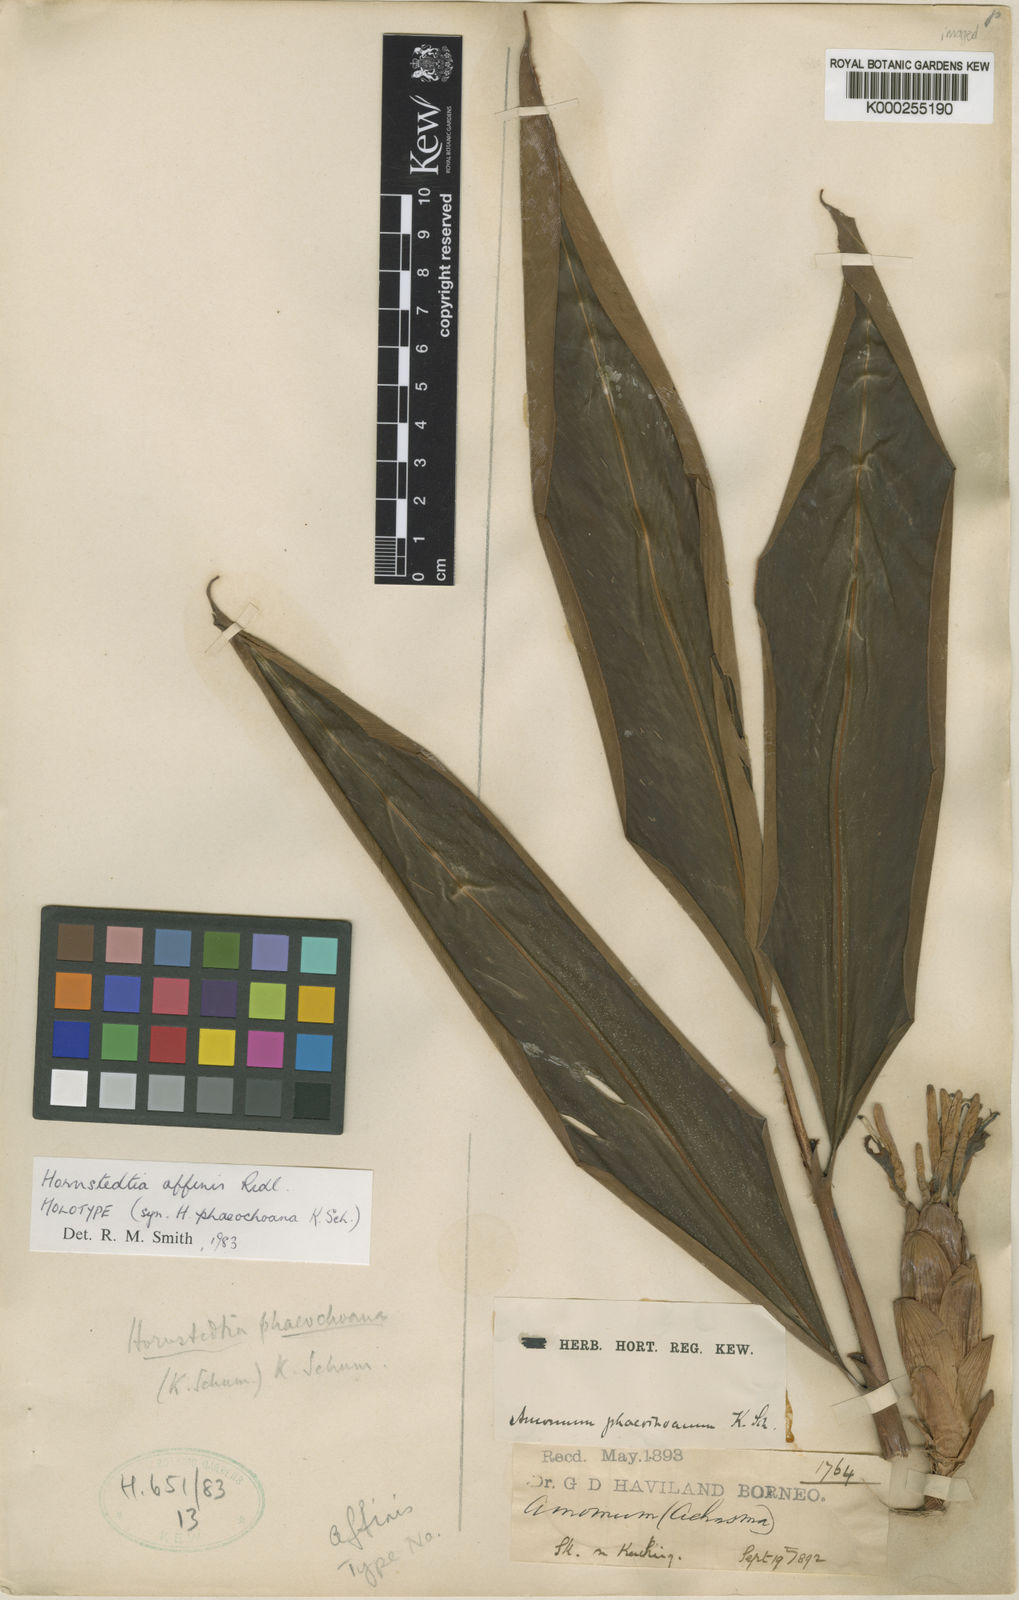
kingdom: Plantae
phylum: Tracheophyta
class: Liliopsida
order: Zingiberales
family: Zingiberaceae
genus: Hornstedtia
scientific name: Hornstedtia affinis
